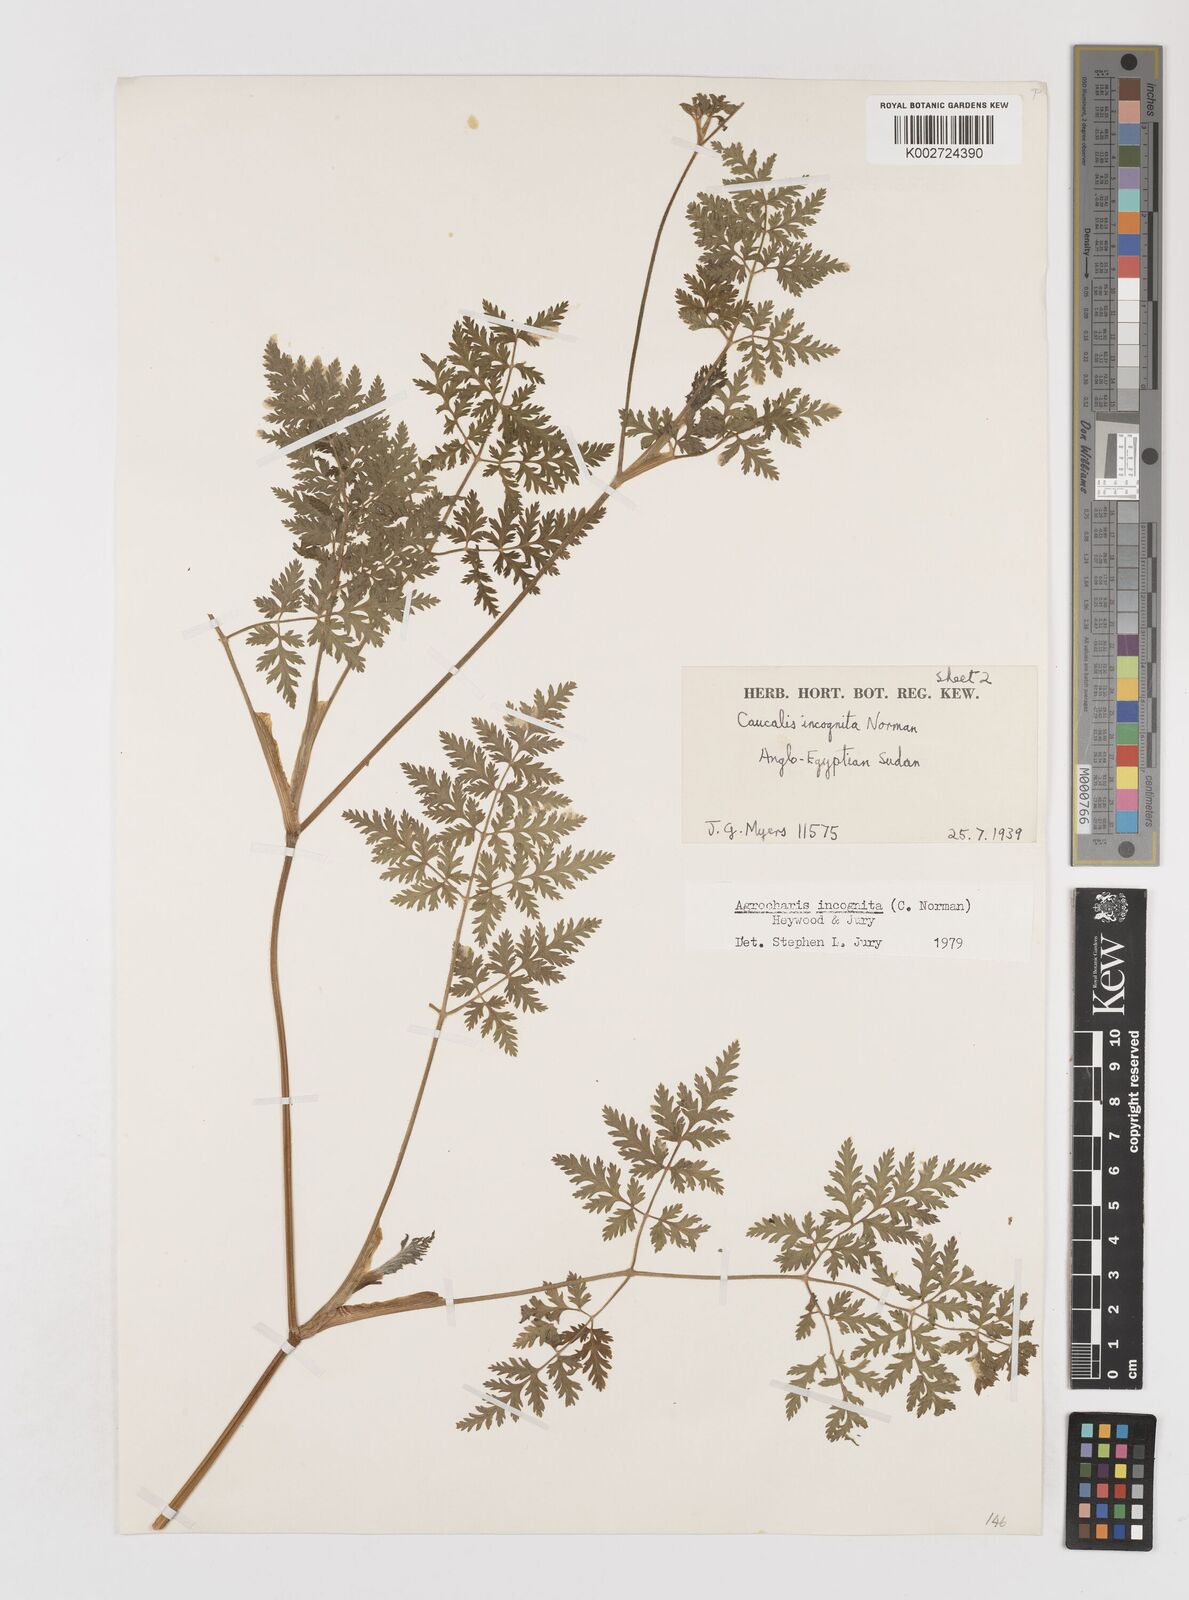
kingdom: Plantae
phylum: Tracheophyta
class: Magnoliopsida
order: Apiales
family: Apiaceae
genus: Daucus
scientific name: Daucus incognitus
